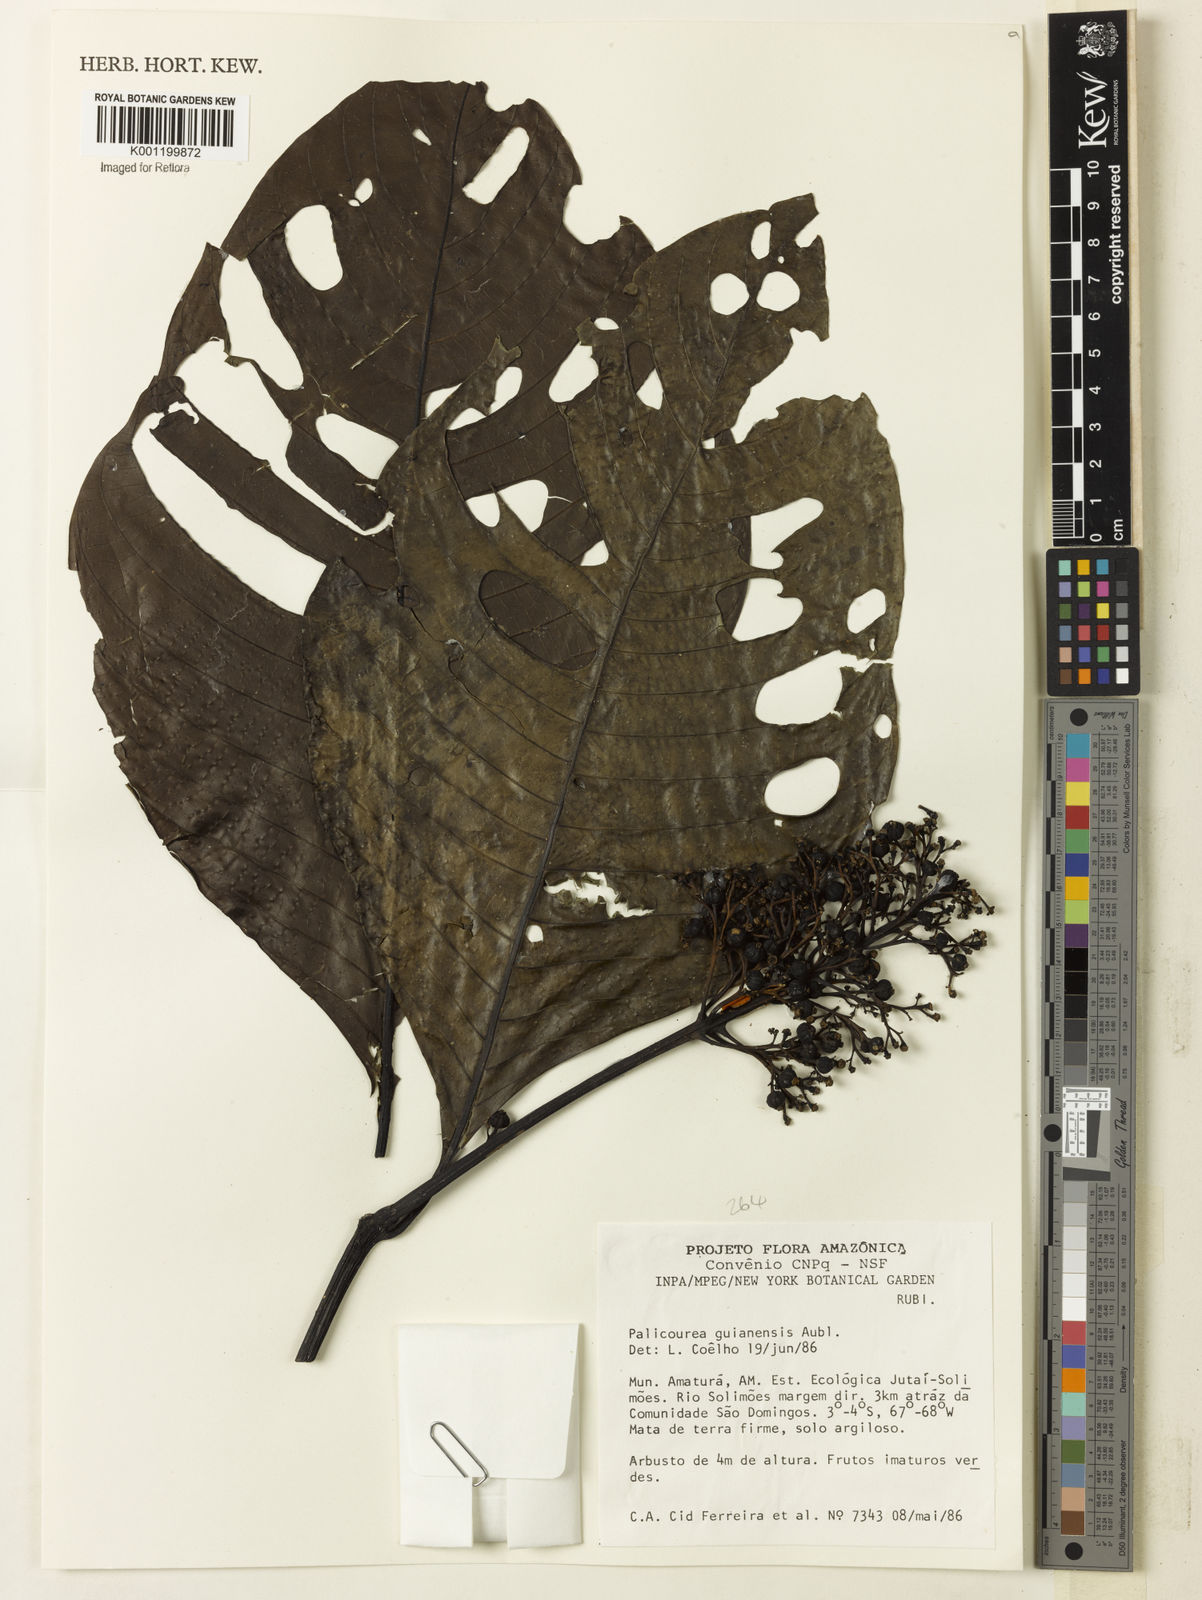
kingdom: Plantae
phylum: Tracheophyta
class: Magnoliopsida
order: Gentianales
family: Rubiaceae
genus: Palicourea
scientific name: Palicourea guianensis
